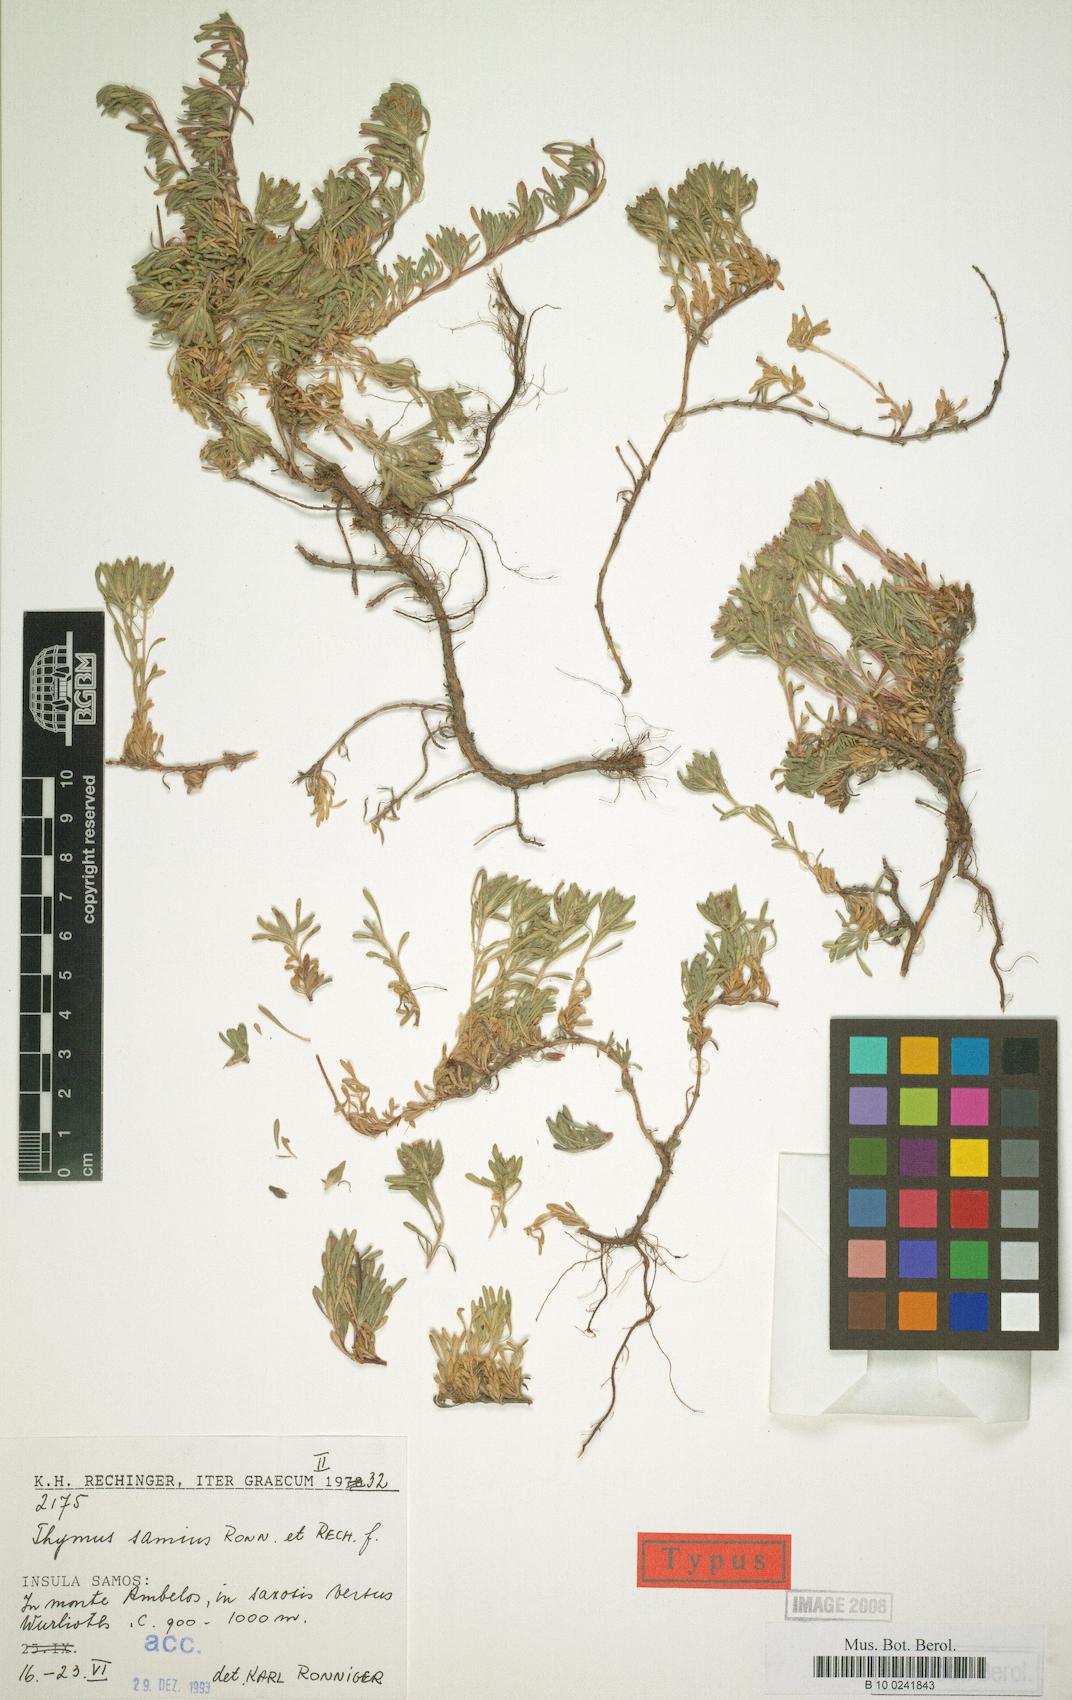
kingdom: Plantae
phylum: Tracheophyta
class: Magnoliopsida
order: Lamiales
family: Lamiaceae
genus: Thymus
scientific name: Thymus samius
